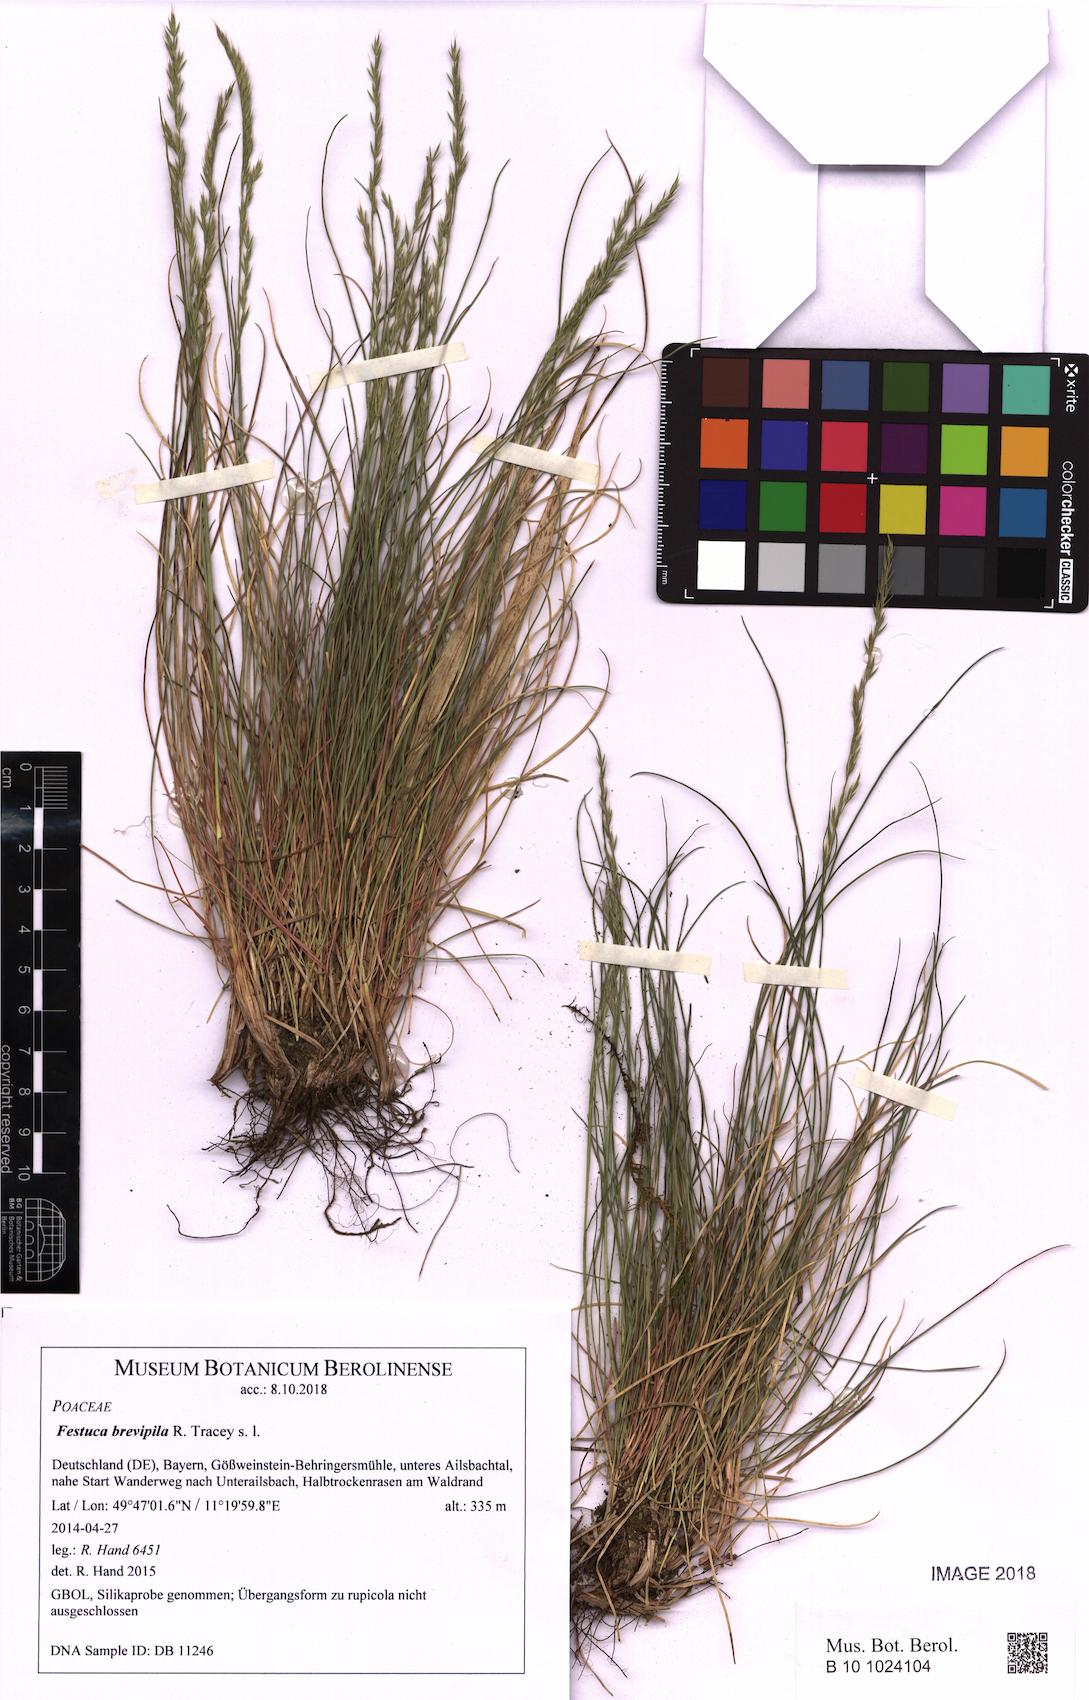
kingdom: Plantae
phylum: Tracheophyta
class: Liliopsida
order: Poales
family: Poaceae
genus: Festuca
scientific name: Festuca trachyphylla
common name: Hard fescue
